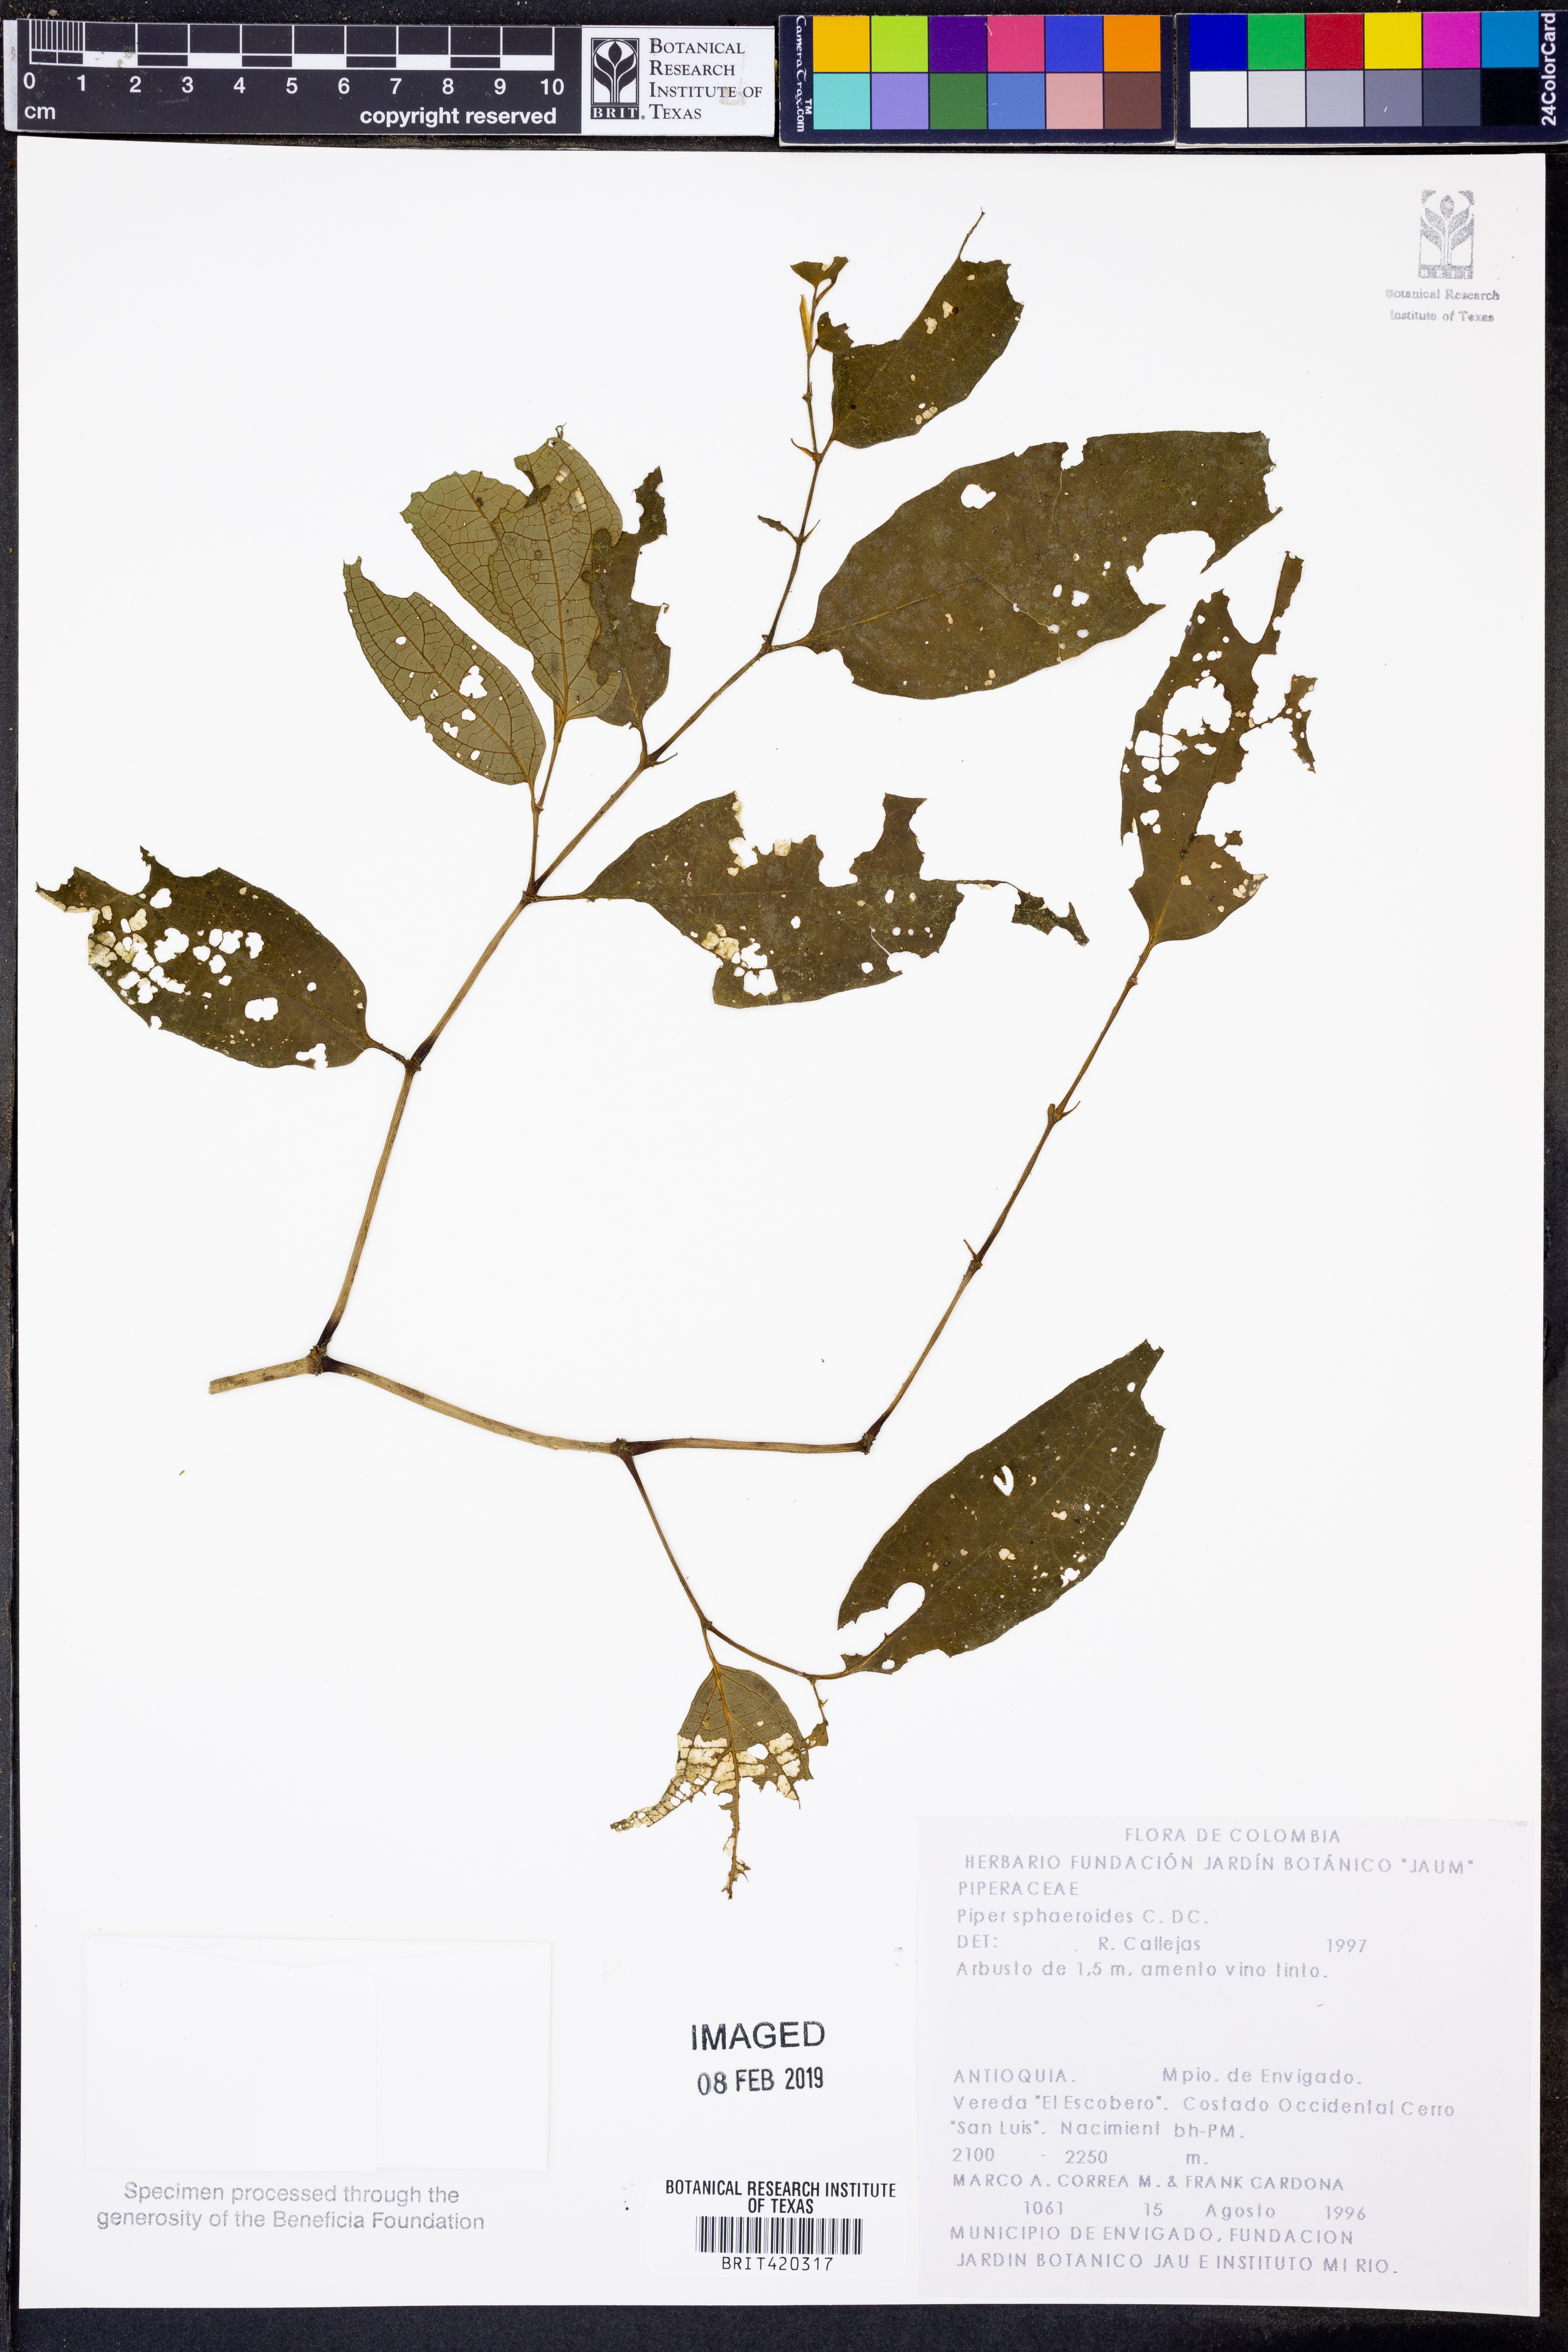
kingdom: Plantae
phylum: Tracheophyta
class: Magnoliopsida
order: Piperales
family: Piperaceae
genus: Piper
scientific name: Piper sphaeroides
